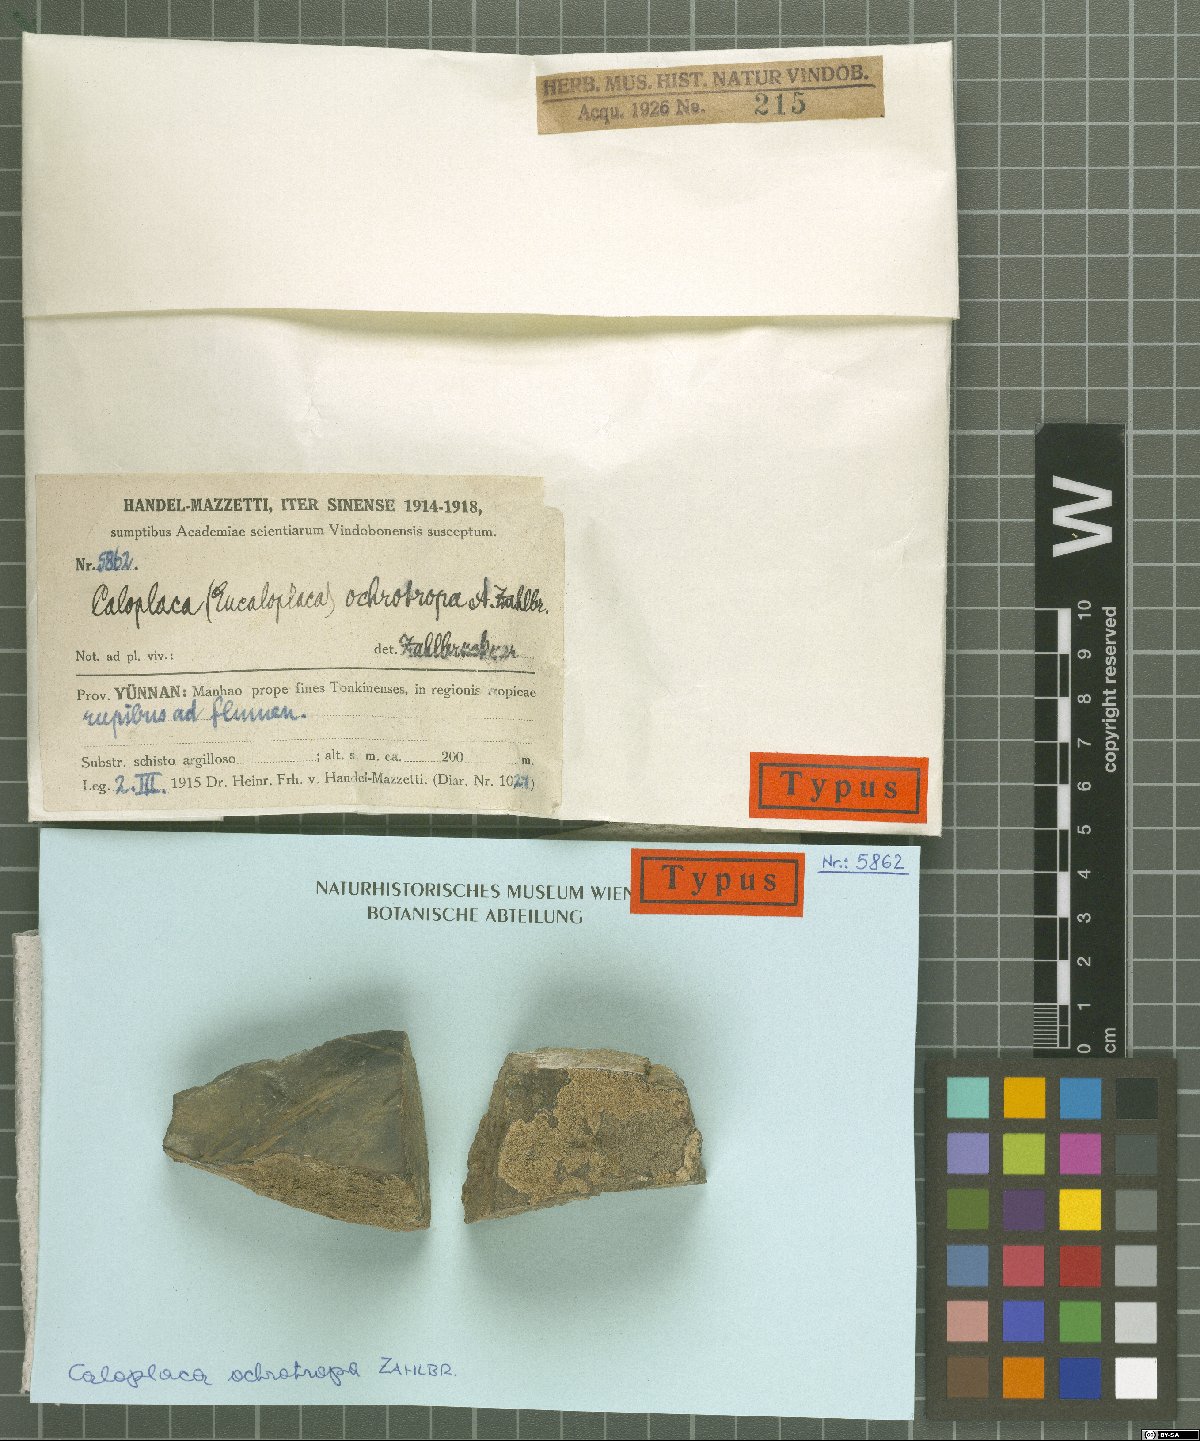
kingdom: Fungi
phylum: Ascomycota
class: Lecanoromycetes
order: Teloschistales
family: Teloschistaceae
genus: Caloplaca
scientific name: Caloplaca
